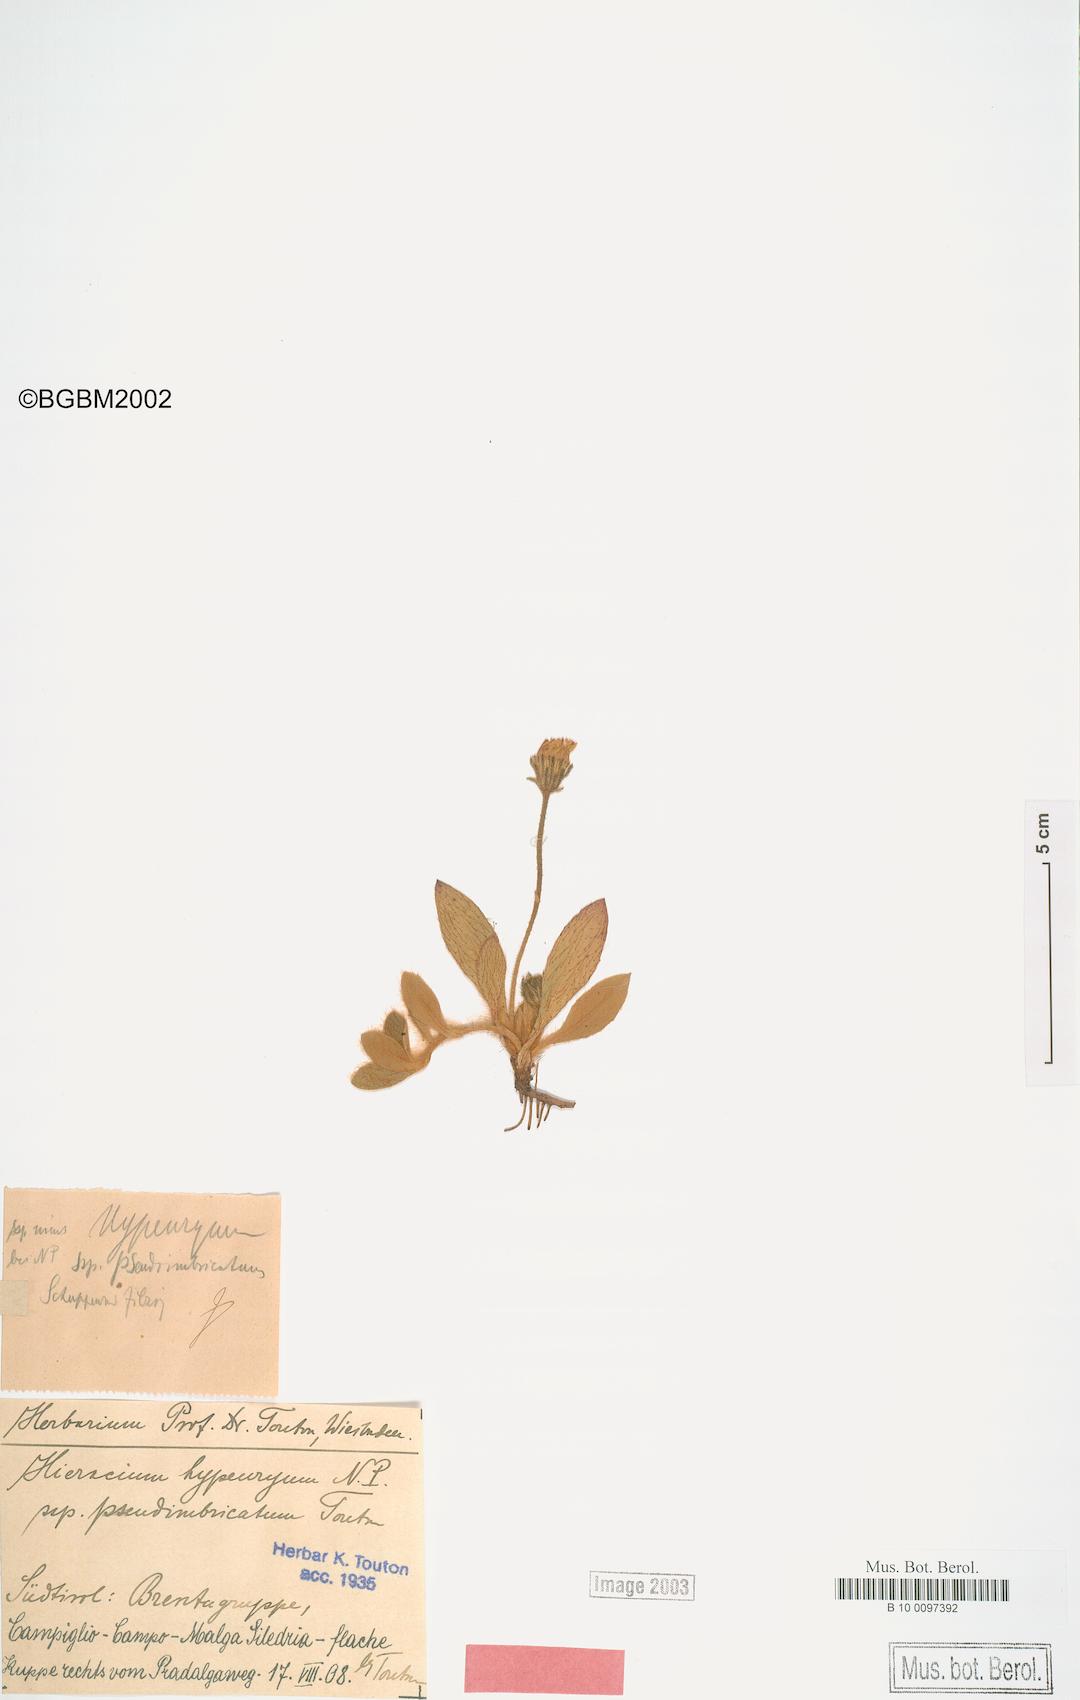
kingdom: Plantae
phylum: Tracheophyta
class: Magnoliopsida
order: Asterales
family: Asteraceae
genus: Hieracium
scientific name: Hieracium hypeurum
